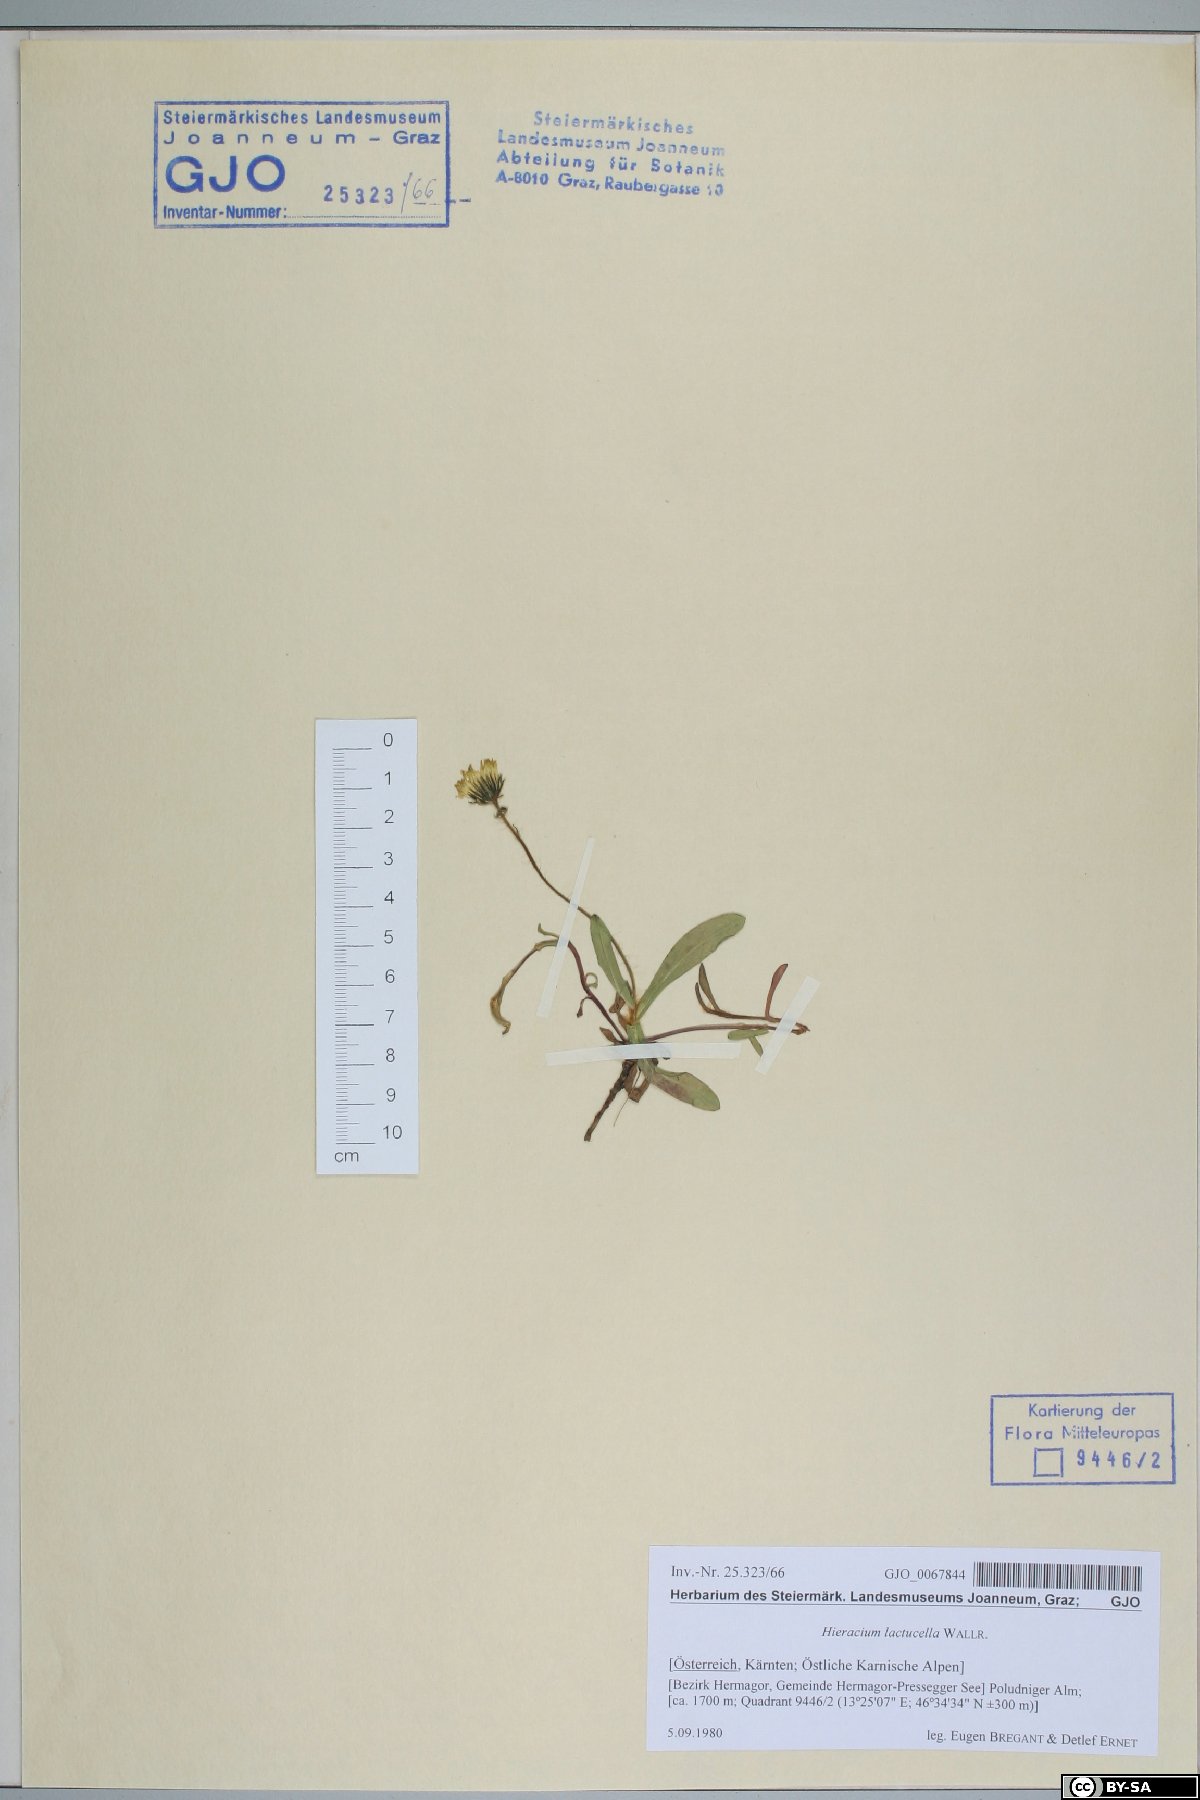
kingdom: Plantae
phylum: Tracheophyta
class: Magnoliopsida
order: Asterales
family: Asteraceae
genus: Pilosella
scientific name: Pilosella lactucella
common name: Glaucous fox-and-cubs
